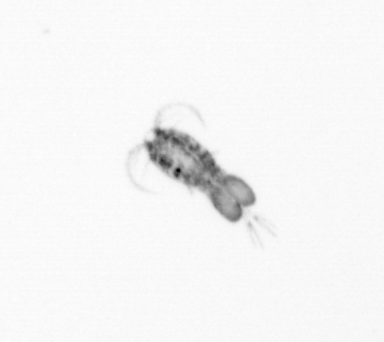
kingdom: Animalia
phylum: Arthropoda
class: Copepoda
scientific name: Copepoda
